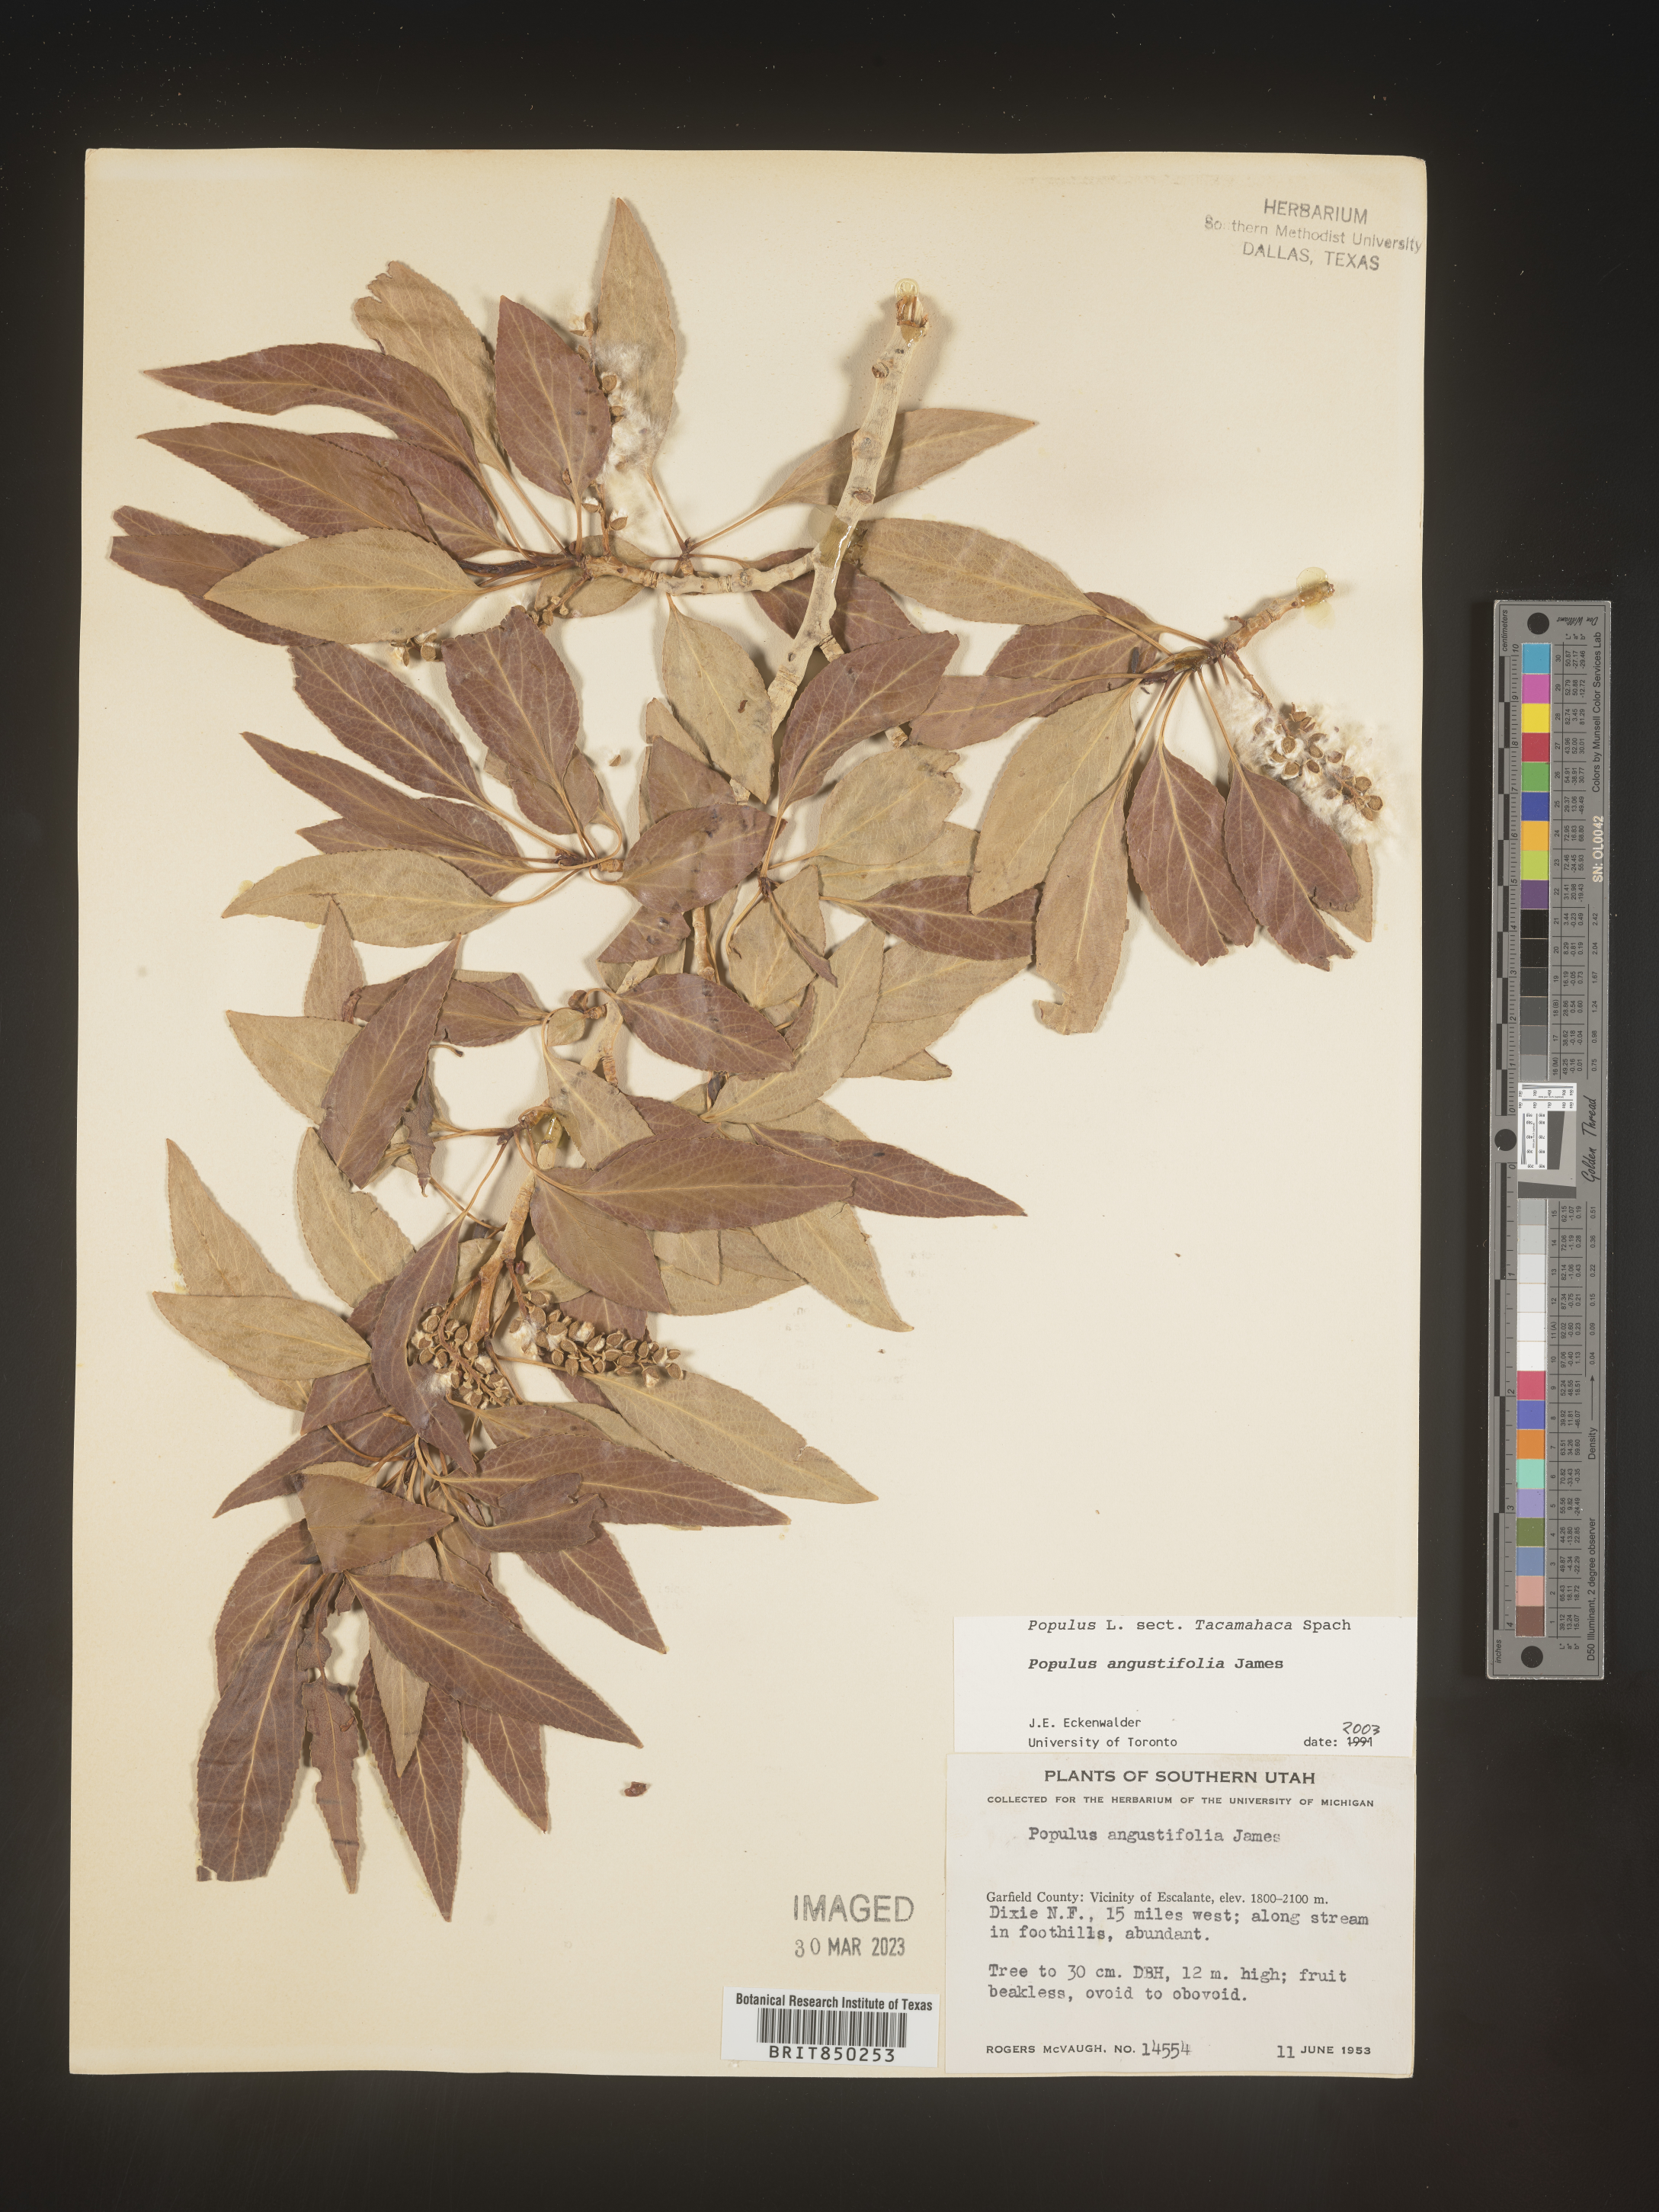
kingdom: Plantae
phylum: Tracheophyta
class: Magnoliopsida
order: Malpighiales
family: Salicaceae
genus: Populus
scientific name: Populus angustifolia
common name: Willow cottonwood
